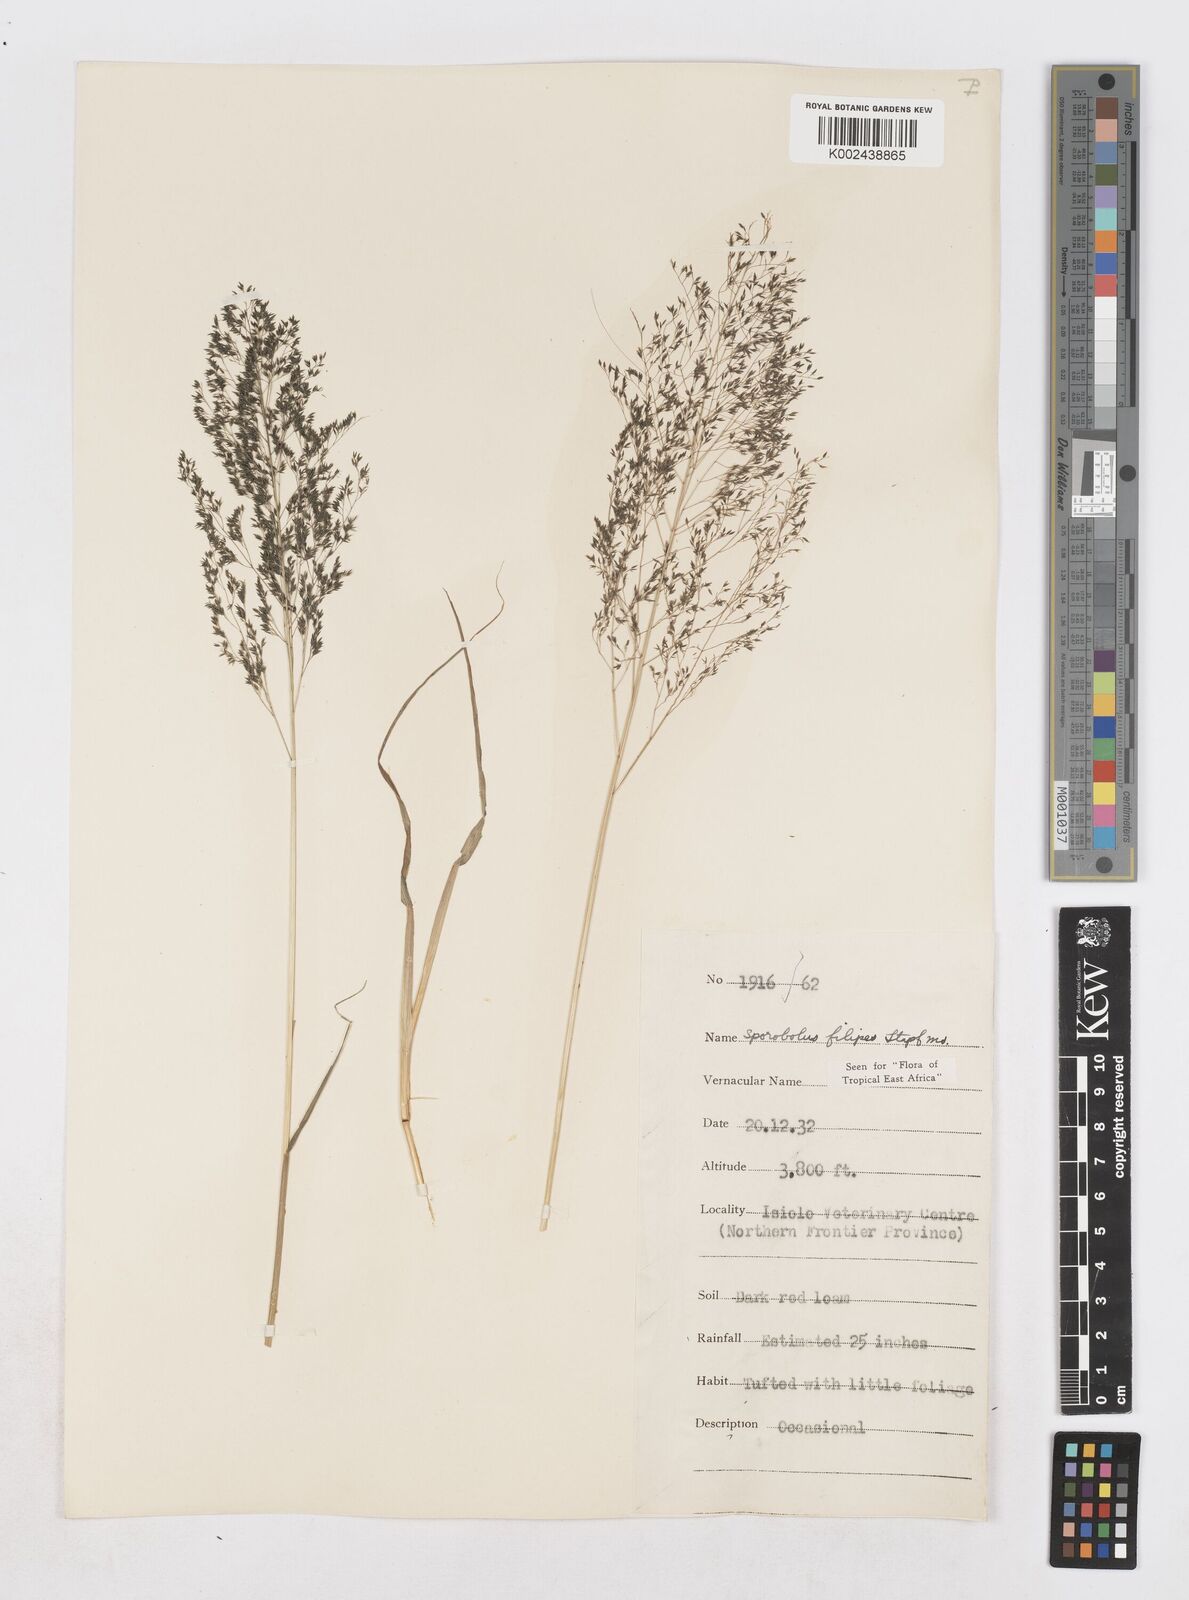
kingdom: Plantae
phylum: Tracheophyta
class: Liliopsida
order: Poales
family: Poaceae
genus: Sporobolus
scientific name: Sporobolus agrostoides
